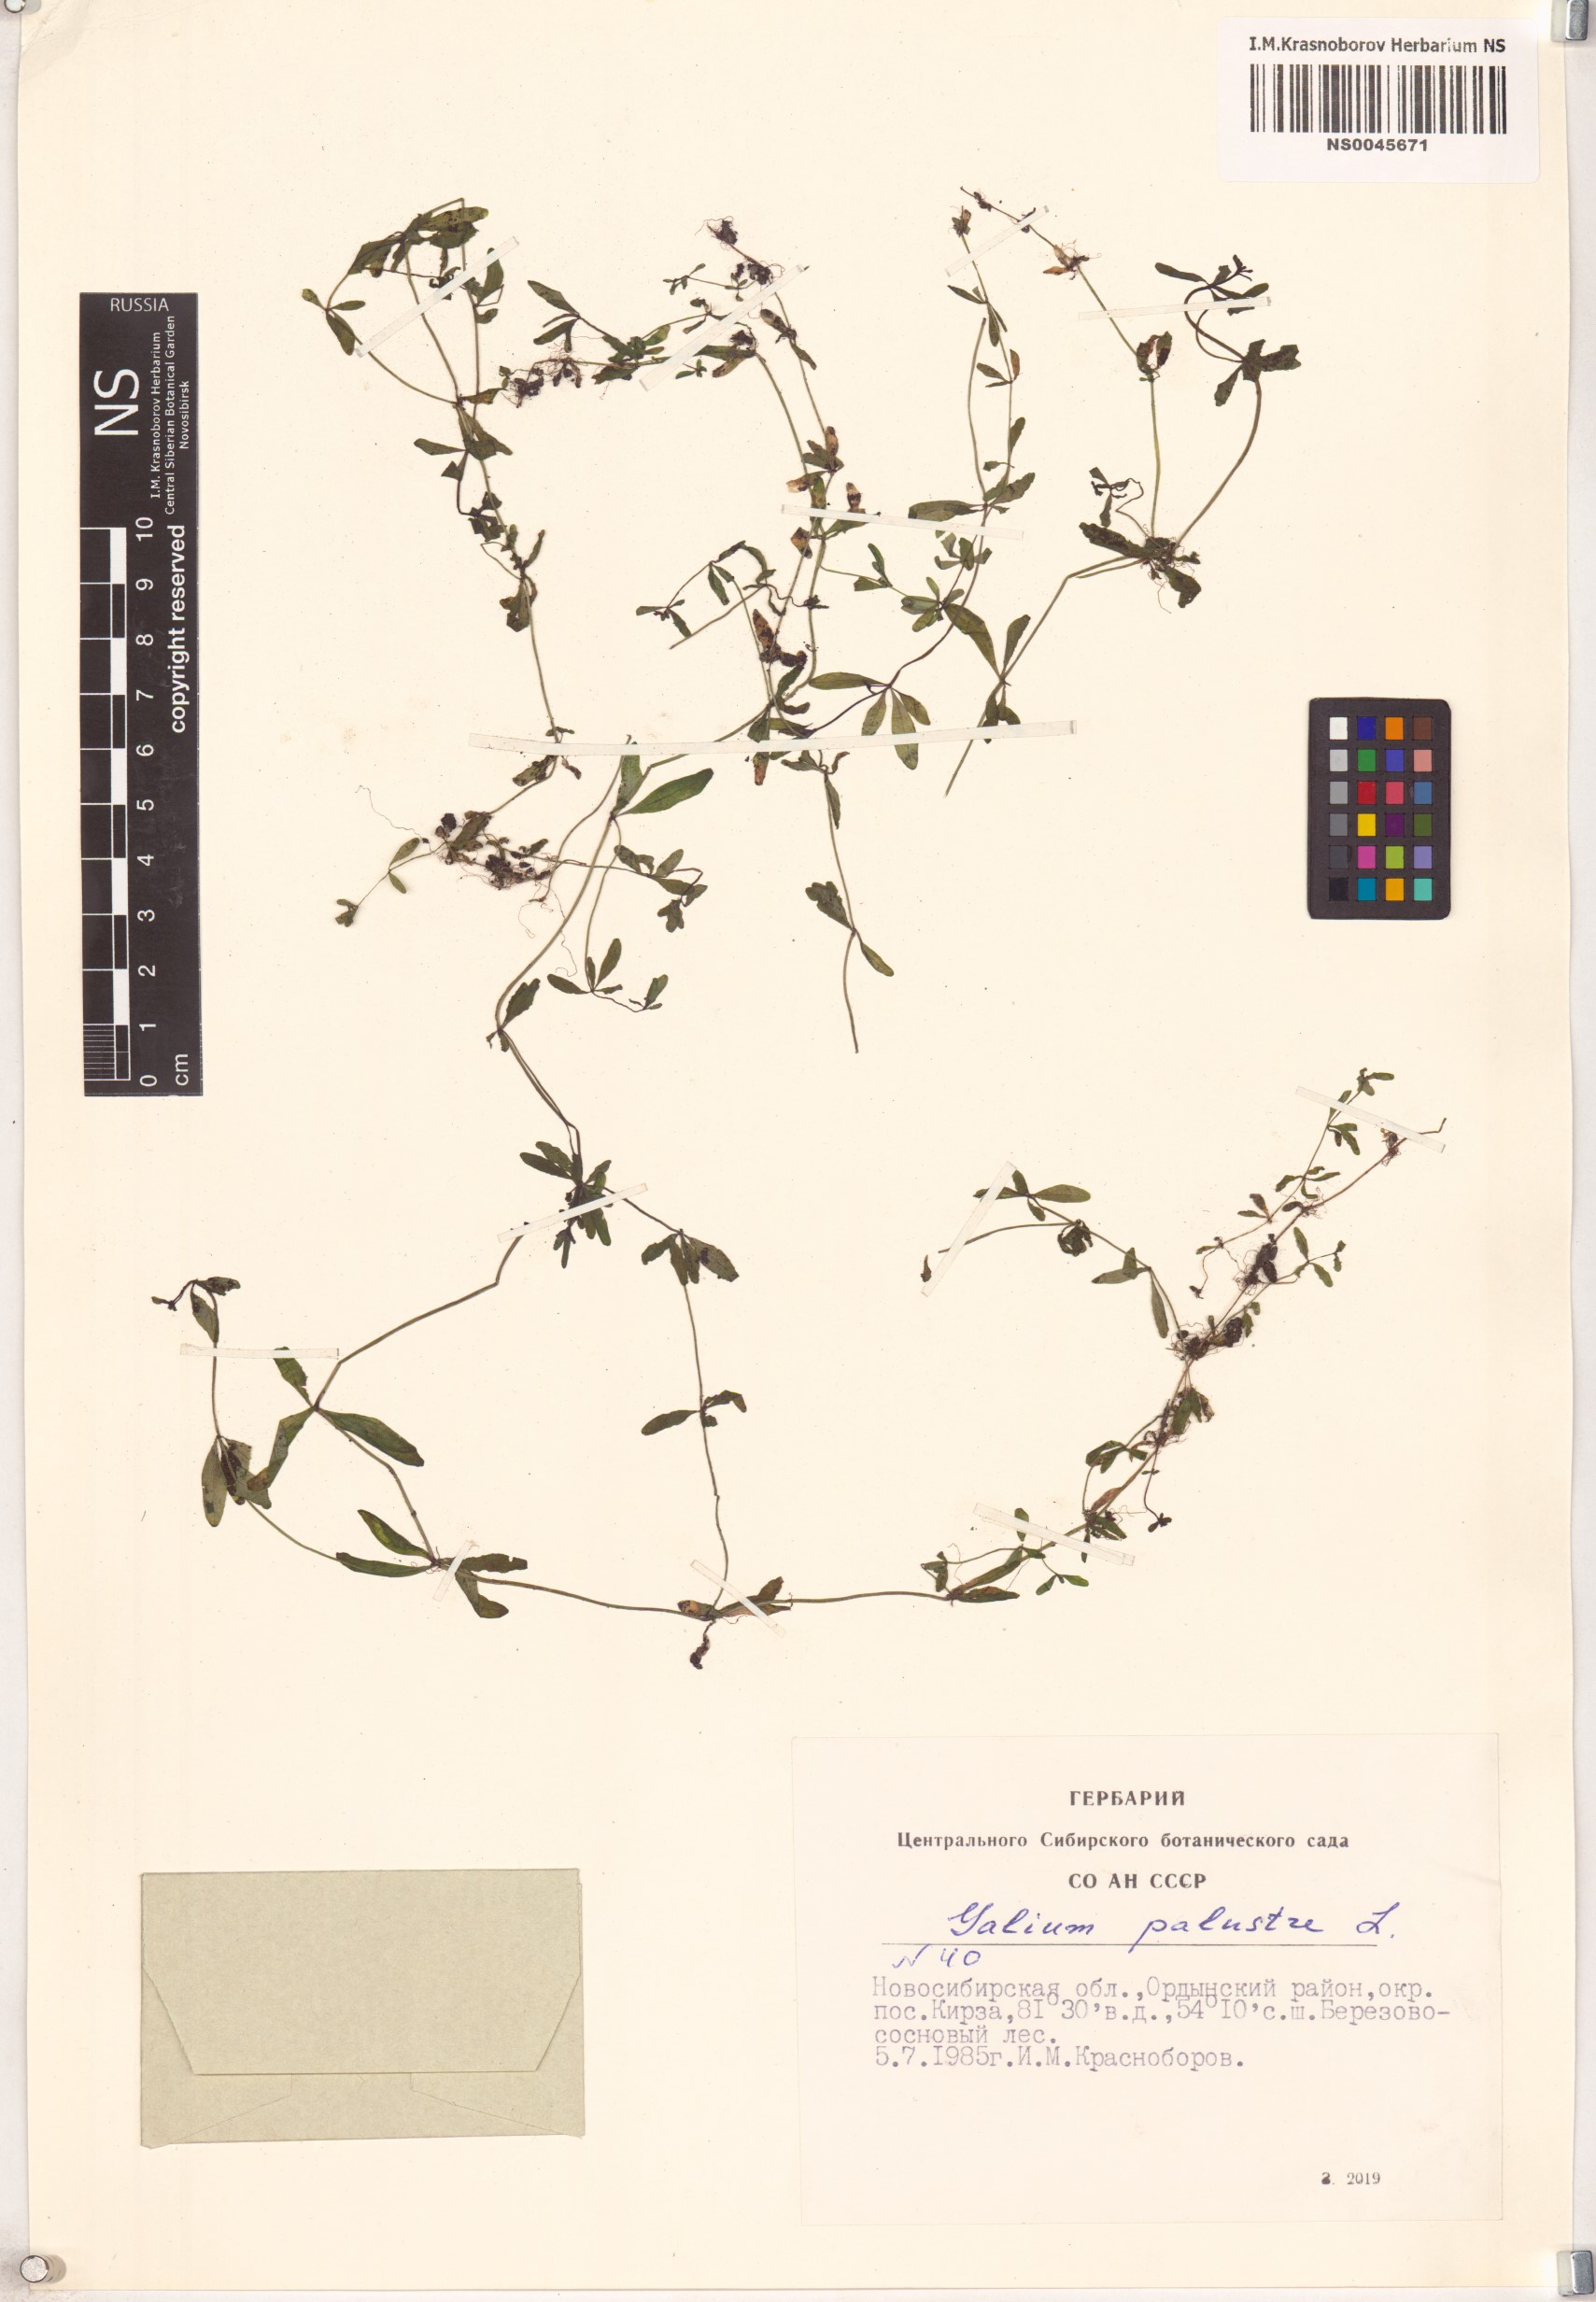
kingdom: Plantae
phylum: Tracheophyta
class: Magnoliopsida
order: Gentianales
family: Rubiaceae
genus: Galium
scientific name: Galium palustre
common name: Common marsh-bedstraw
